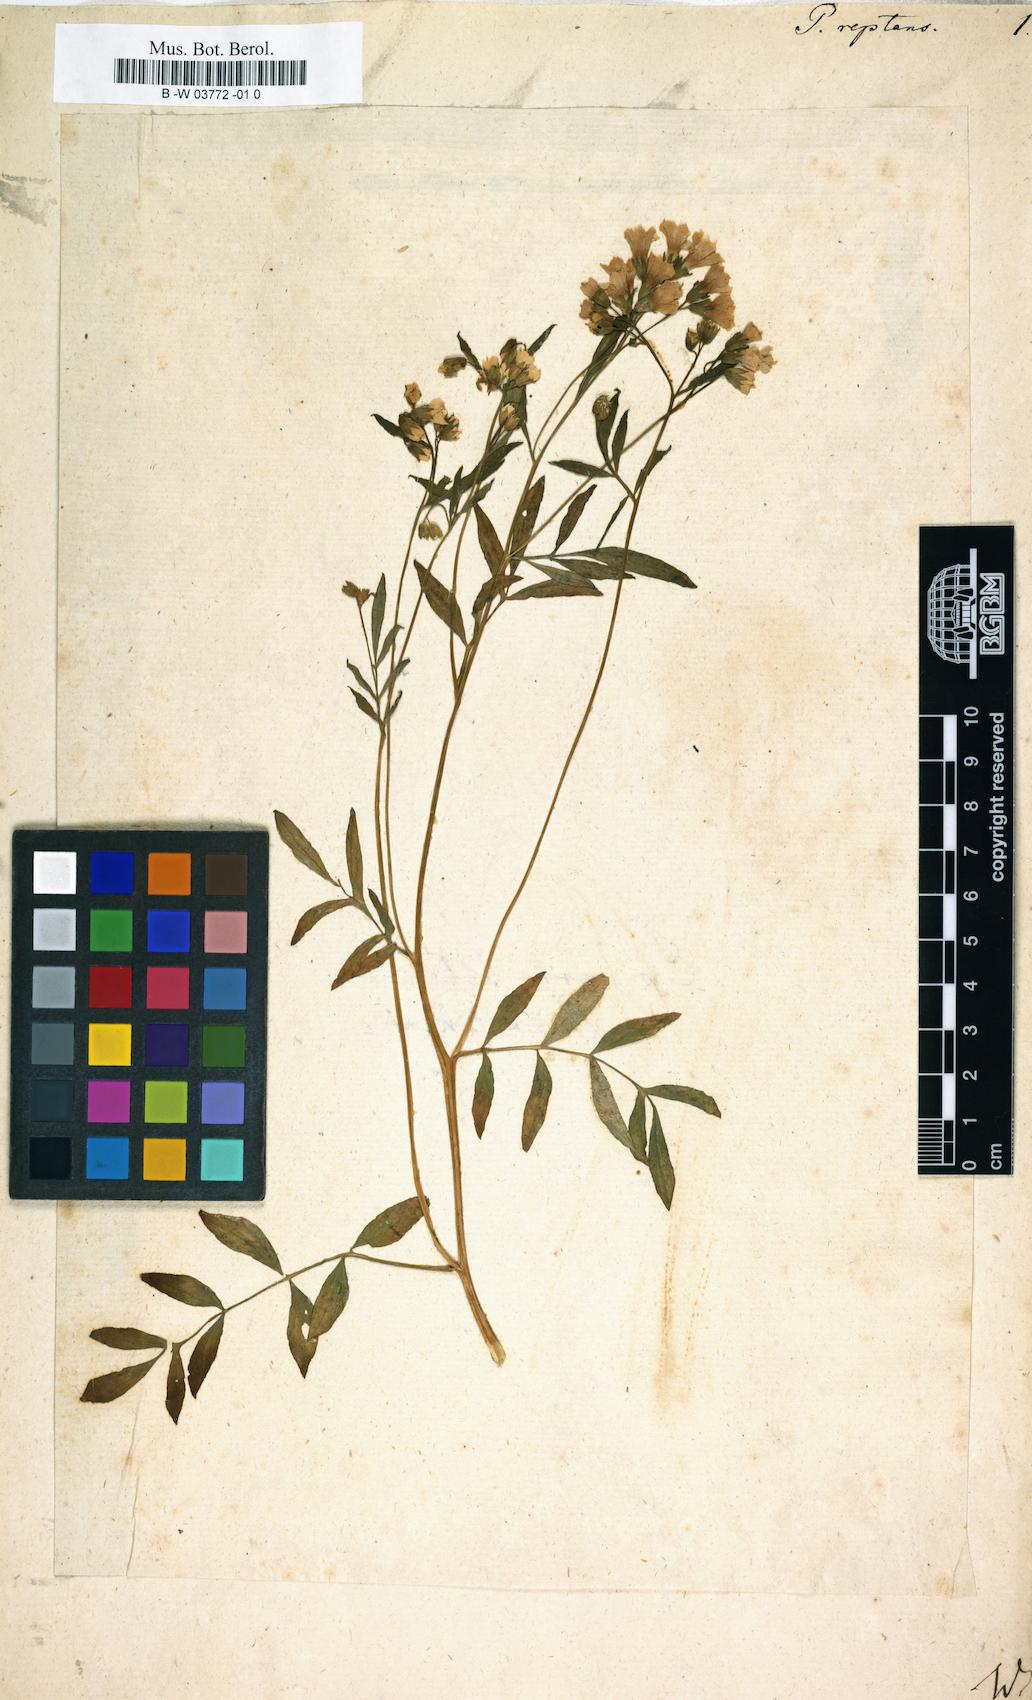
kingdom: Plantae
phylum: Tracheophyta
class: Magnoliopsida
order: Ericales
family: Polemoniaceae
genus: Polemonium
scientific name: Polemonium reptans
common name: Creeping jacob's-ladder
